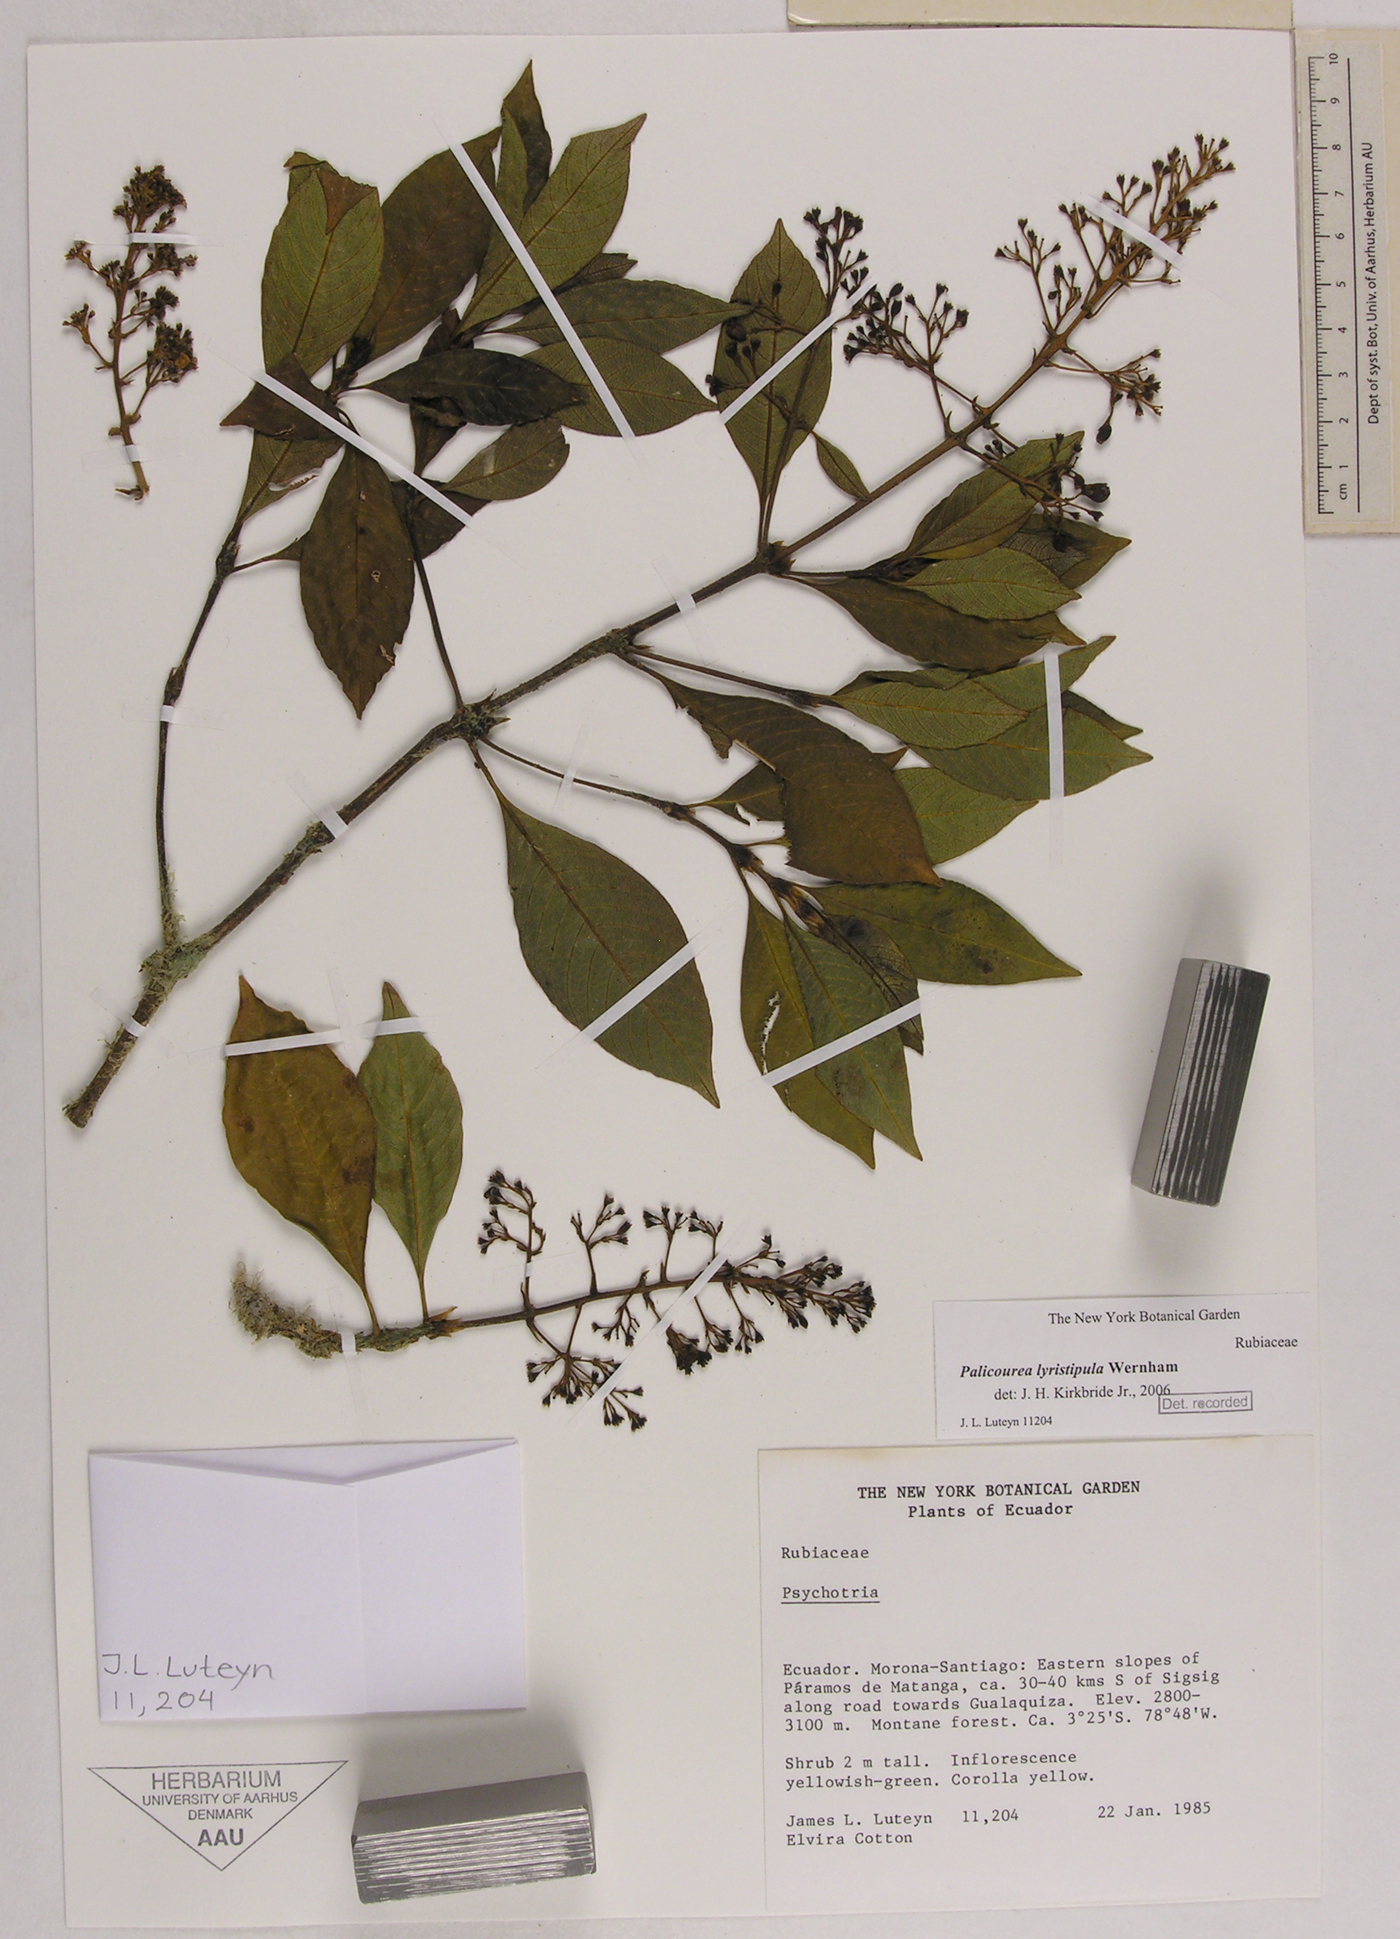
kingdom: Plantae
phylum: Tracheophyta
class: Magnoliopsida
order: Gentianales
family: Rubiaceae
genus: Palicourea
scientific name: Palicourea lyristipula
